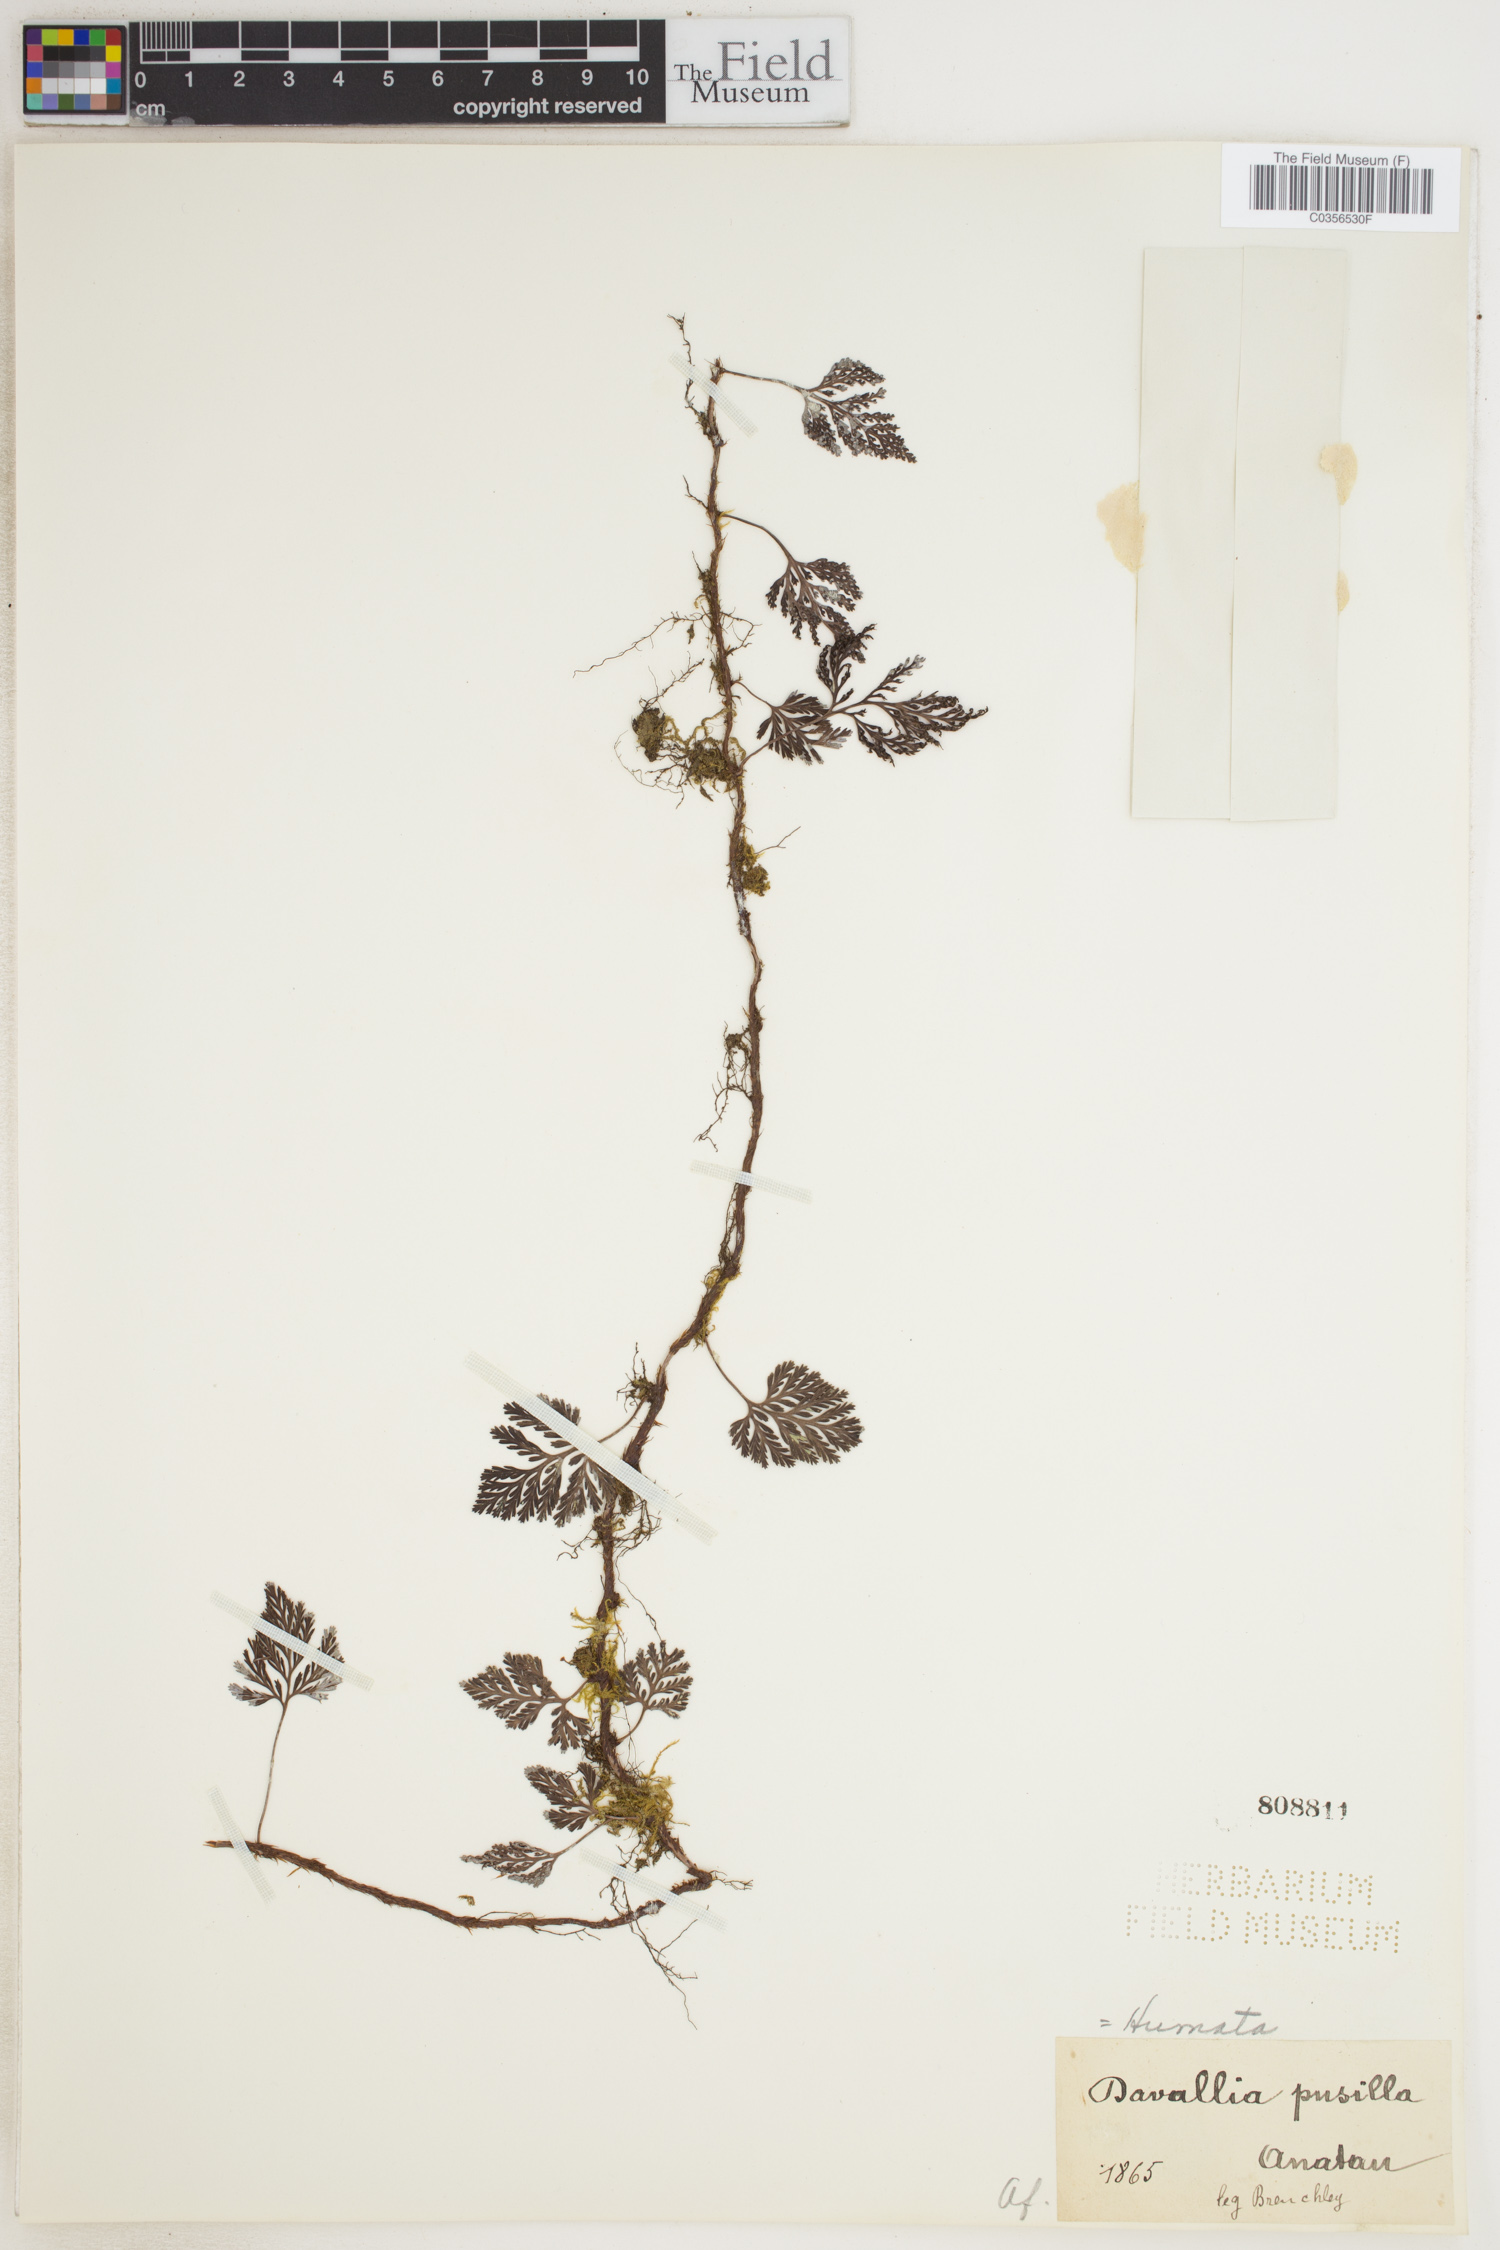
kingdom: Plantae
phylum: Tracheophyta
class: Polypodiopsida
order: Polypodiales
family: Davalliaceae
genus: Davallia
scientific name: Davallia pusilla
